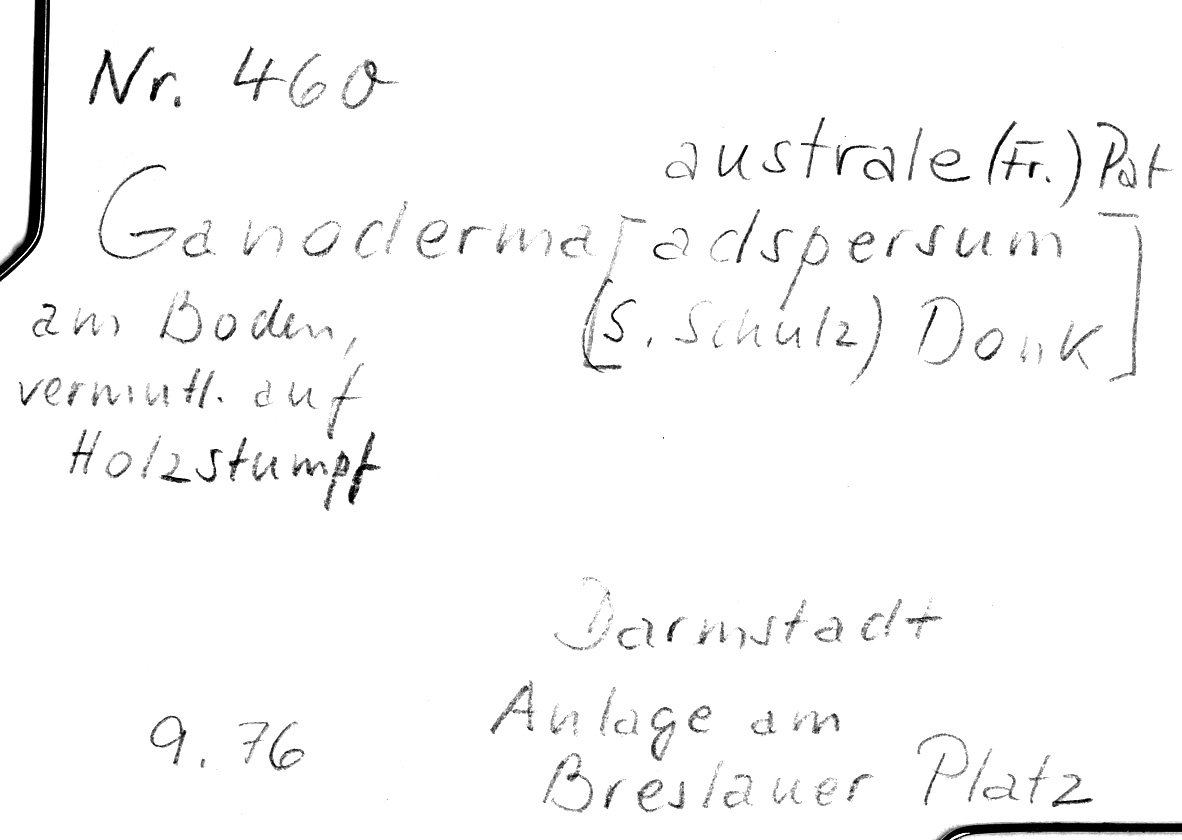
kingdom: Fungi
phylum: Basidiomycota
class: Agaricomycetes
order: Polyporales
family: Polyporaceae
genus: Ganoderma
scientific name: Ganoderma australe
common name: Southern bracket
